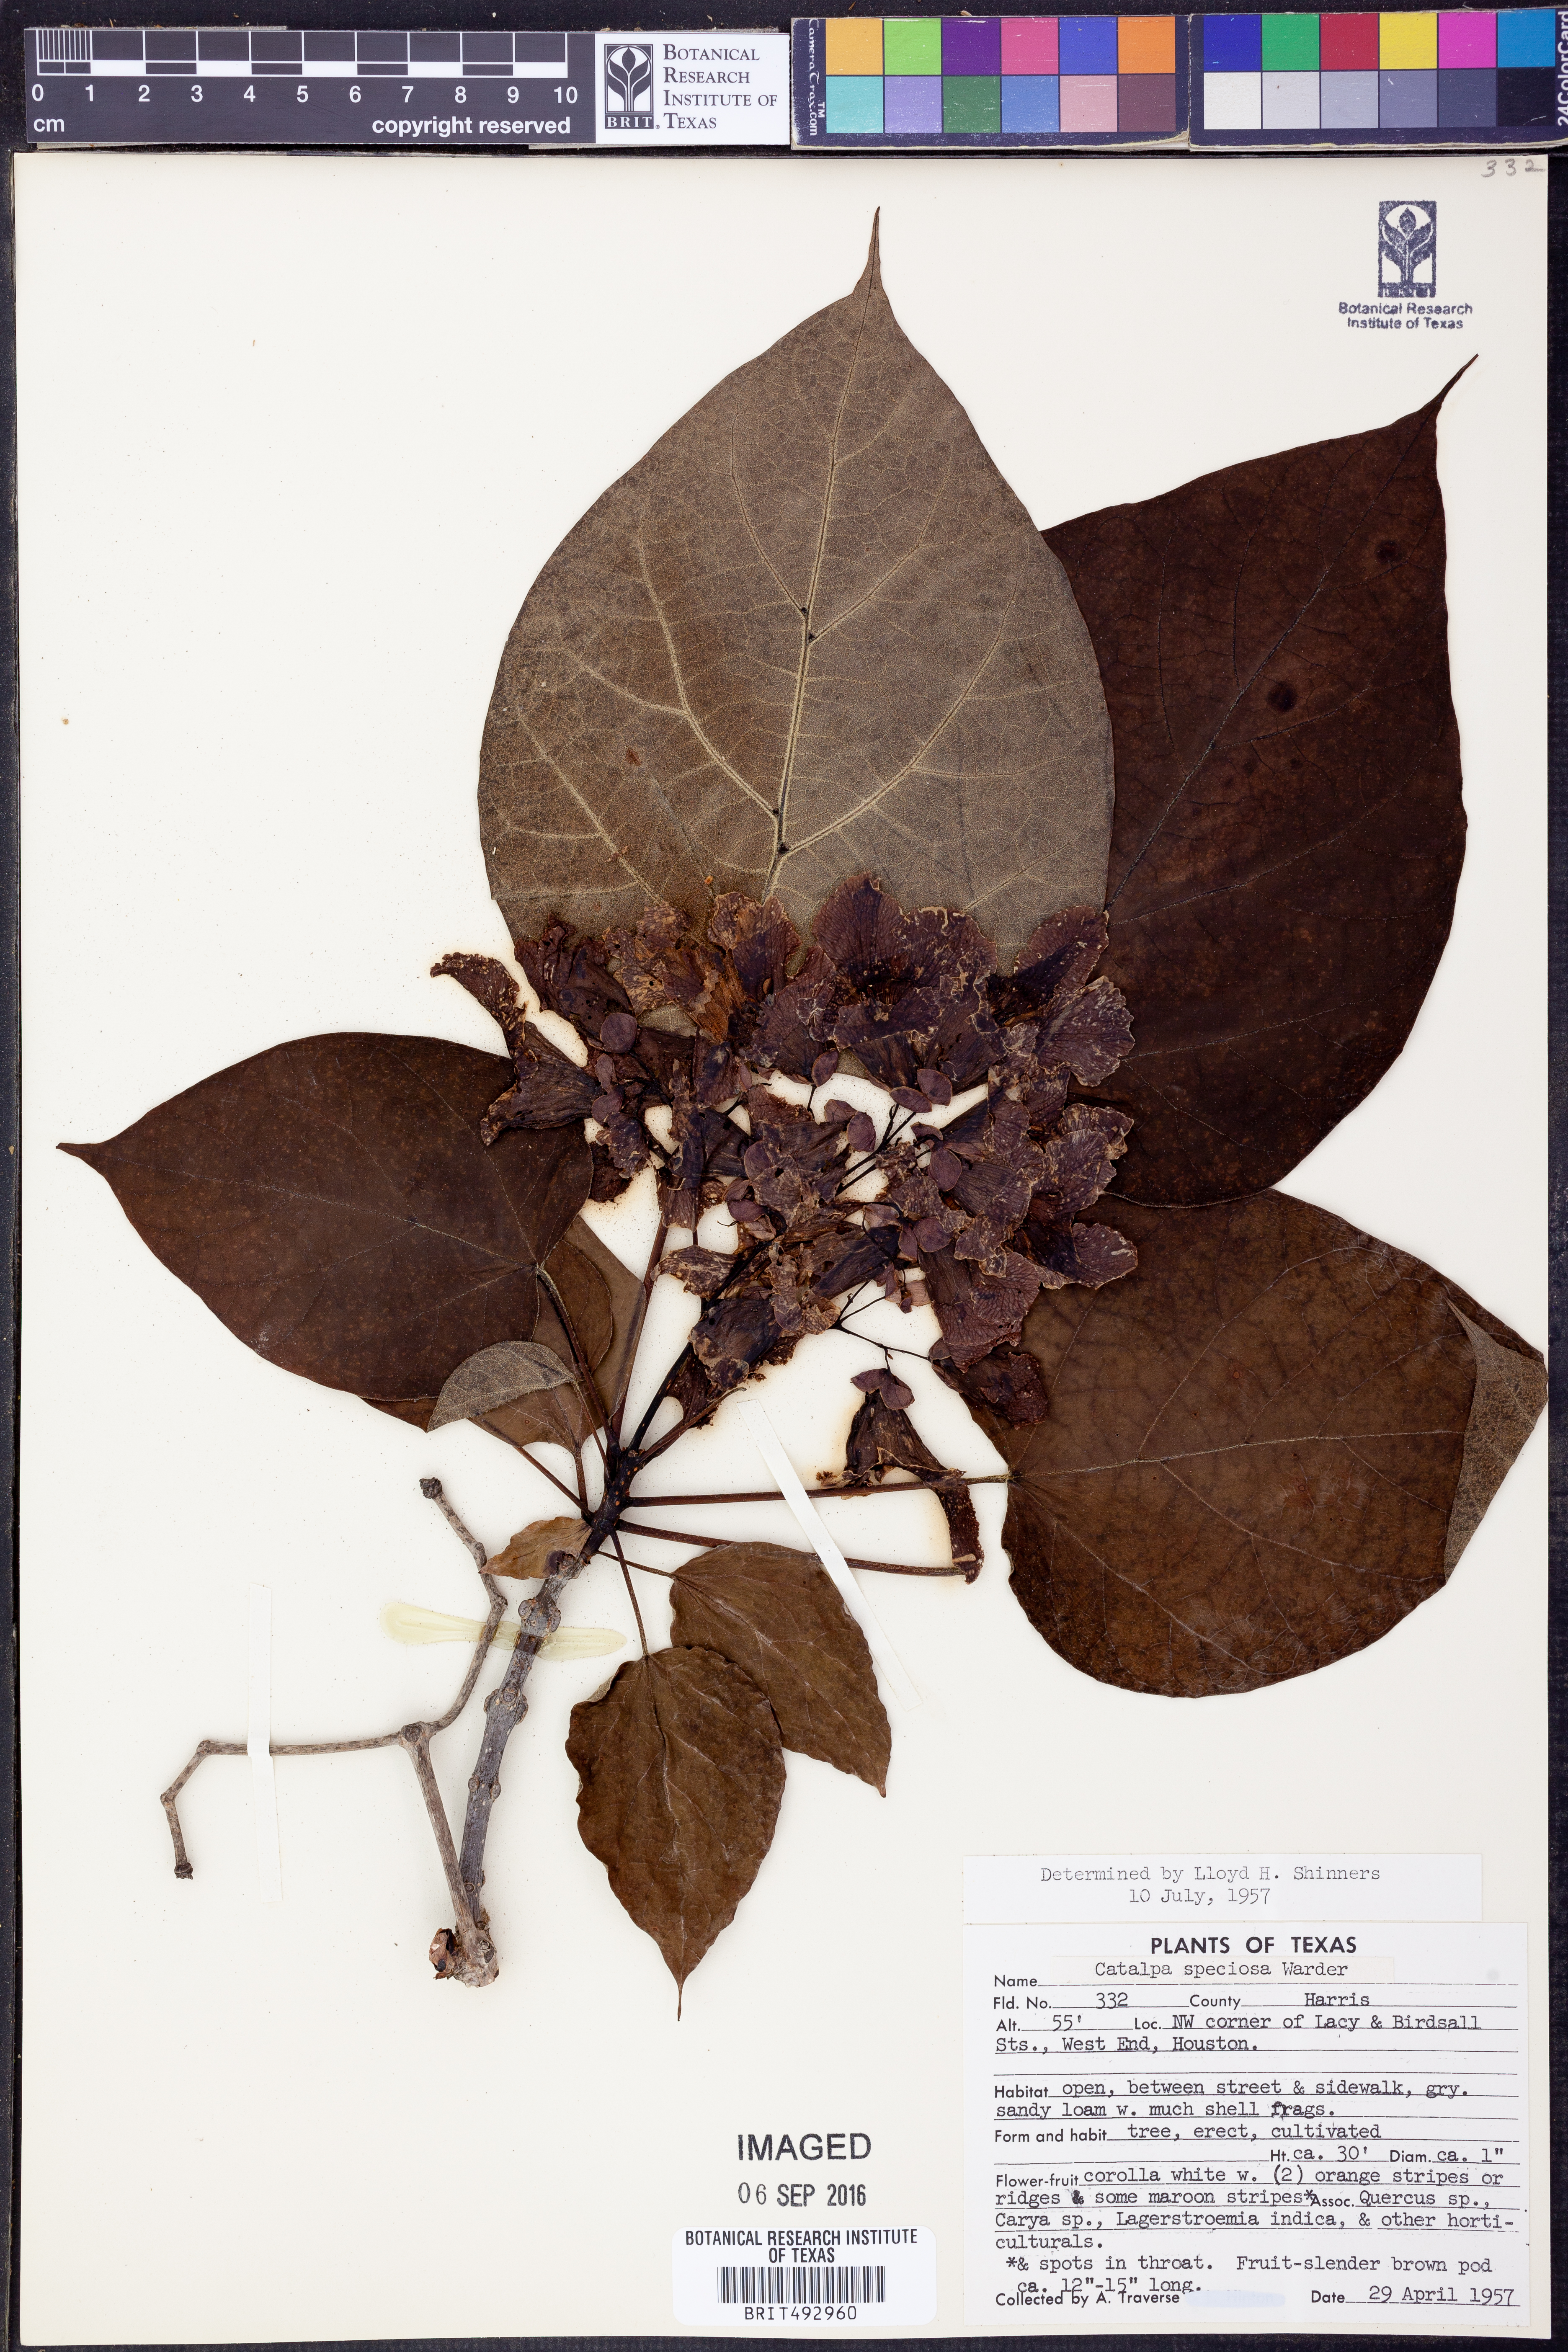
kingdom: Plantae
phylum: Tracheophyta
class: Magnoliopsida
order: Lamiales
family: Bignoniaceae
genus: Catalpa
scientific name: Catalpa speciosa
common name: Northern catalpa
